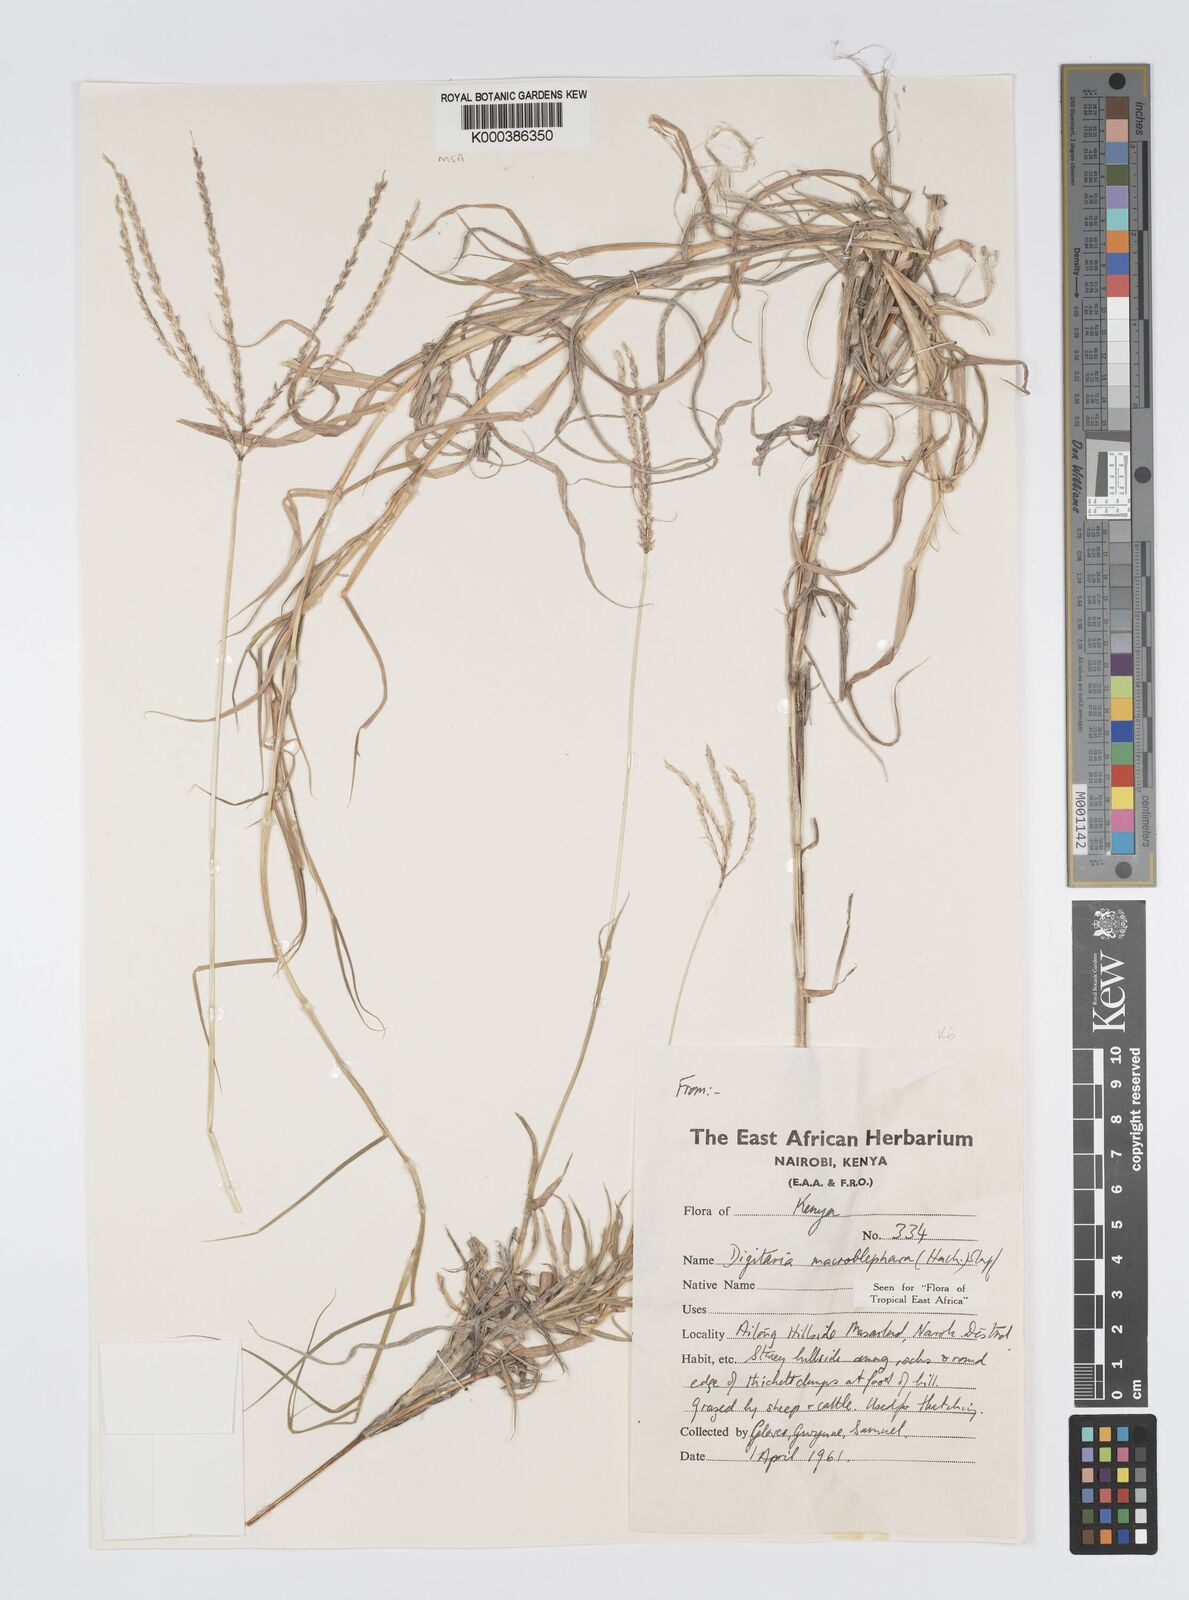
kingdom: Plantae
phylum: Tracheophyta
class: Liliopsida
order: Poales
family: Poaceae
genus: Digitaria
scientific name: Digitaria macroblephara
